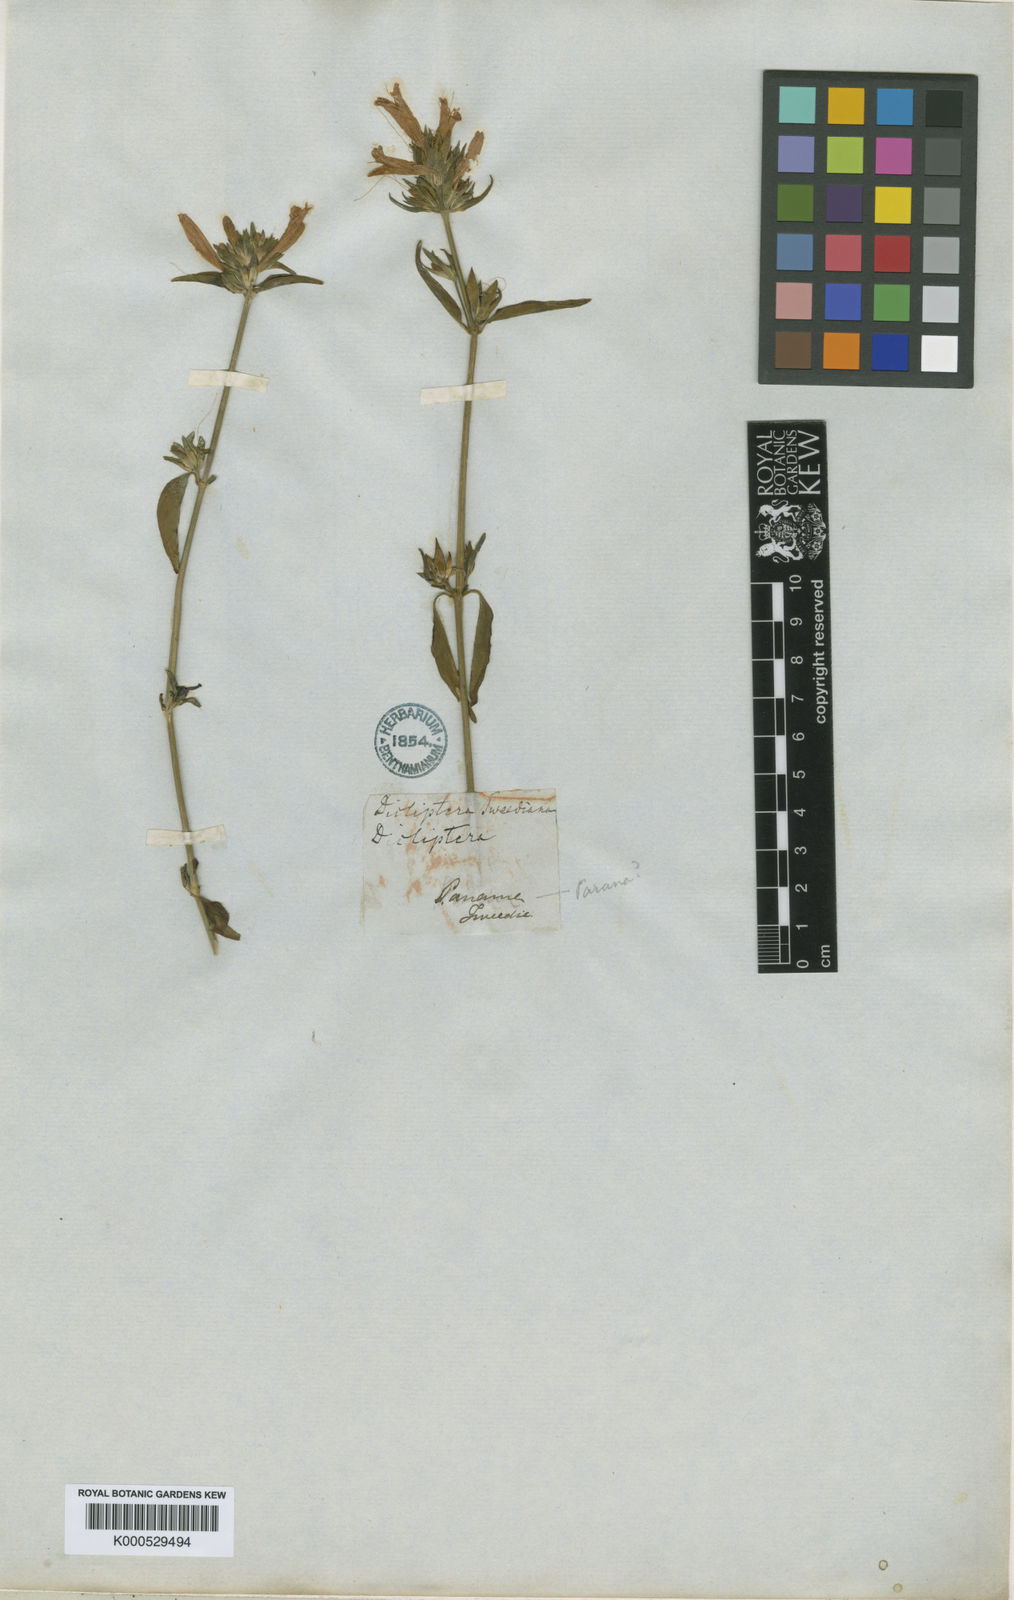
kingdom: Plantae
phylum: Tracheophyta
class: Magnoliopsida
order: Lamiales
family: Acanthaceae
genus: Dicliptera
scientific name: Dicliptera squarrosa
